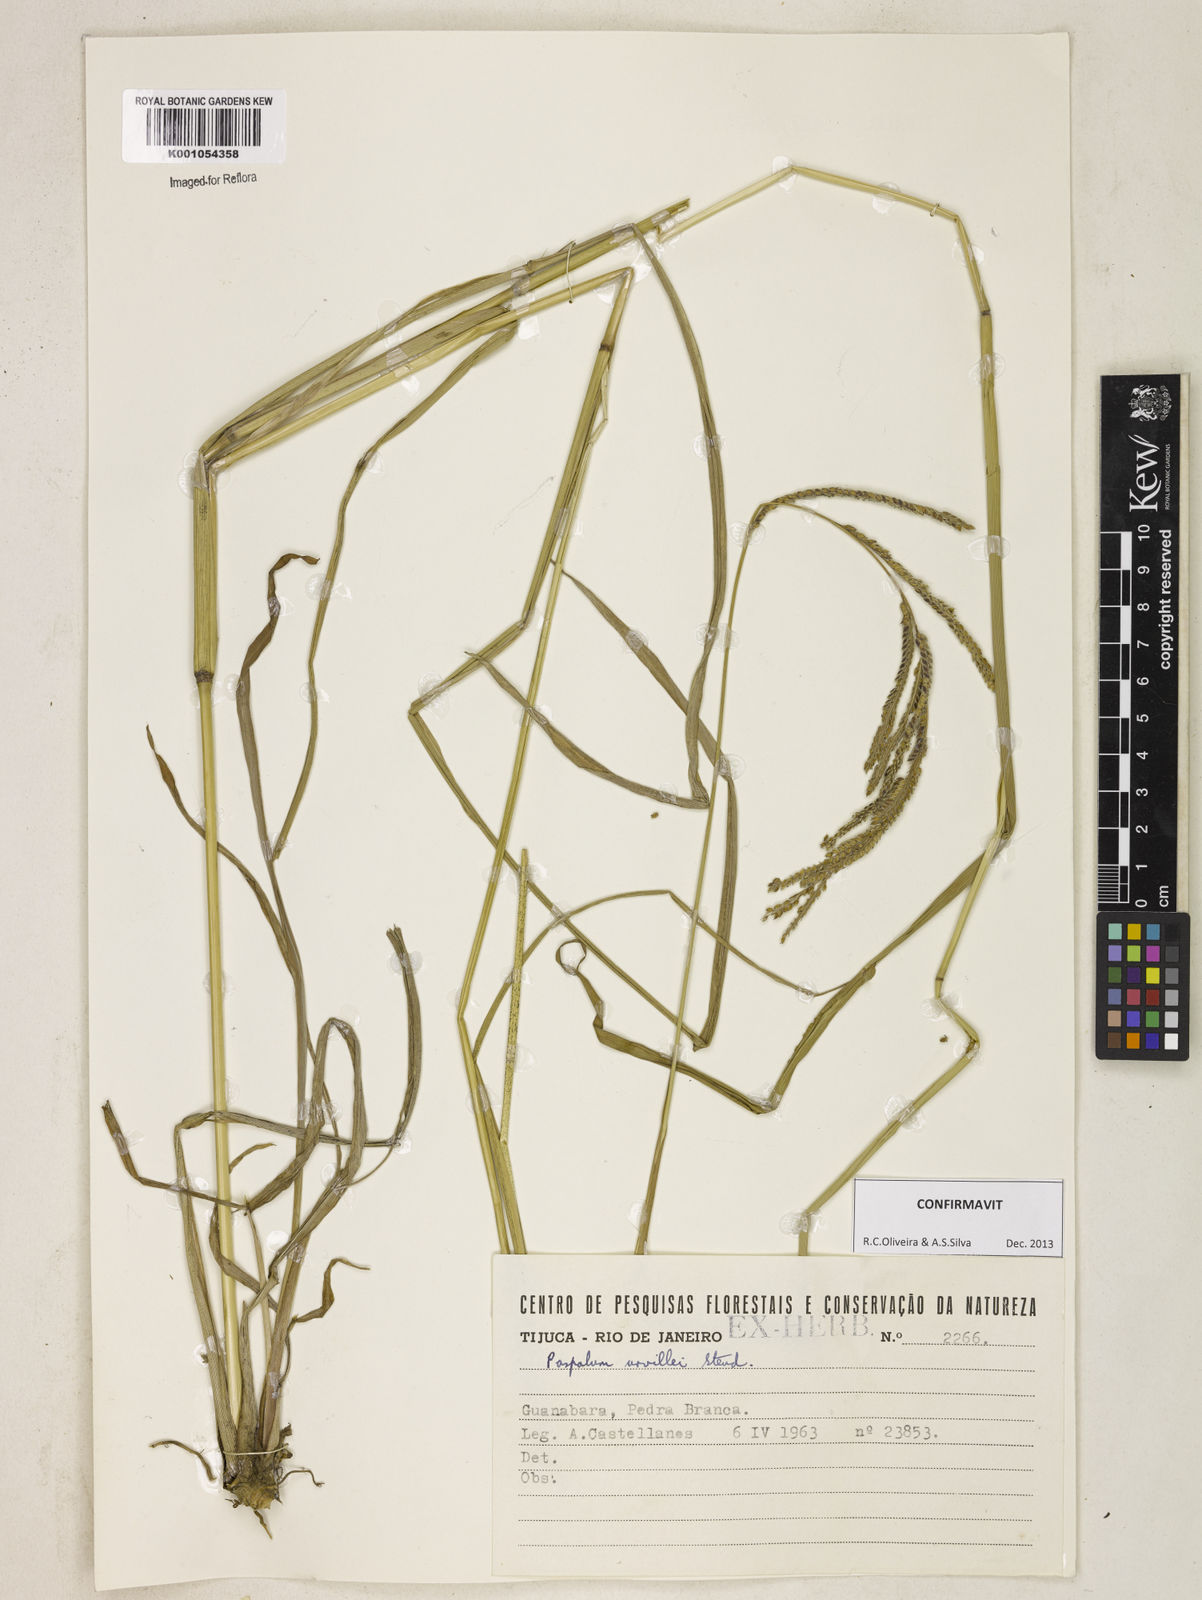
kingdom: Plantae
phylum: Tracheophyta
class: Liliopsida
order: Poales
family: Poaceae
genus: Paspalum
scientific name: Paspalum urvillei
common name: Vasey's grass
